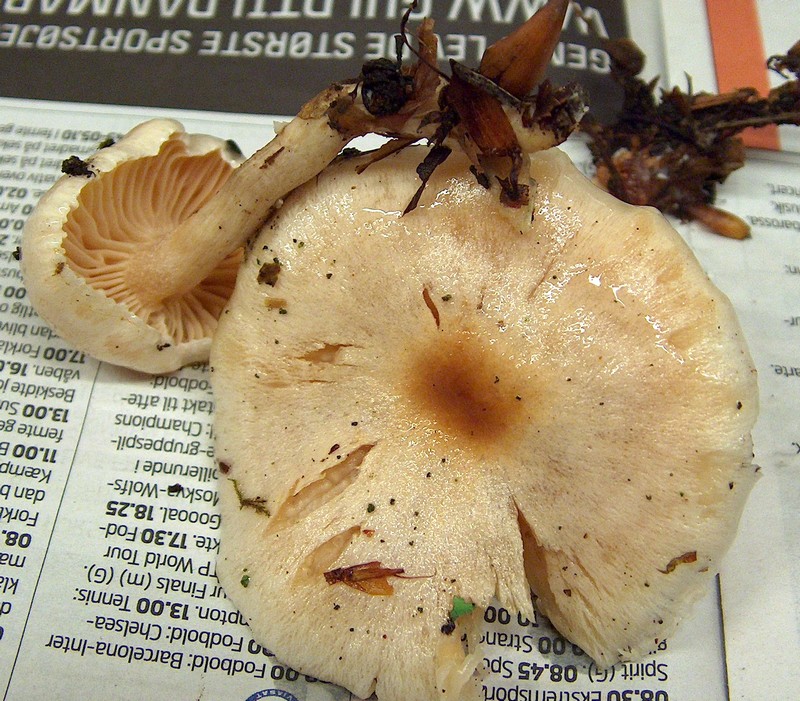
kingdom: Fungi
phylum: Basidiomycota
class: Agaricomycetes
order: Agaricales
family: Hygrophoraceae
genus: Hygrophorus
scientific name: Hygrophorus unicolor
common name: orangeøjet sneglehat
